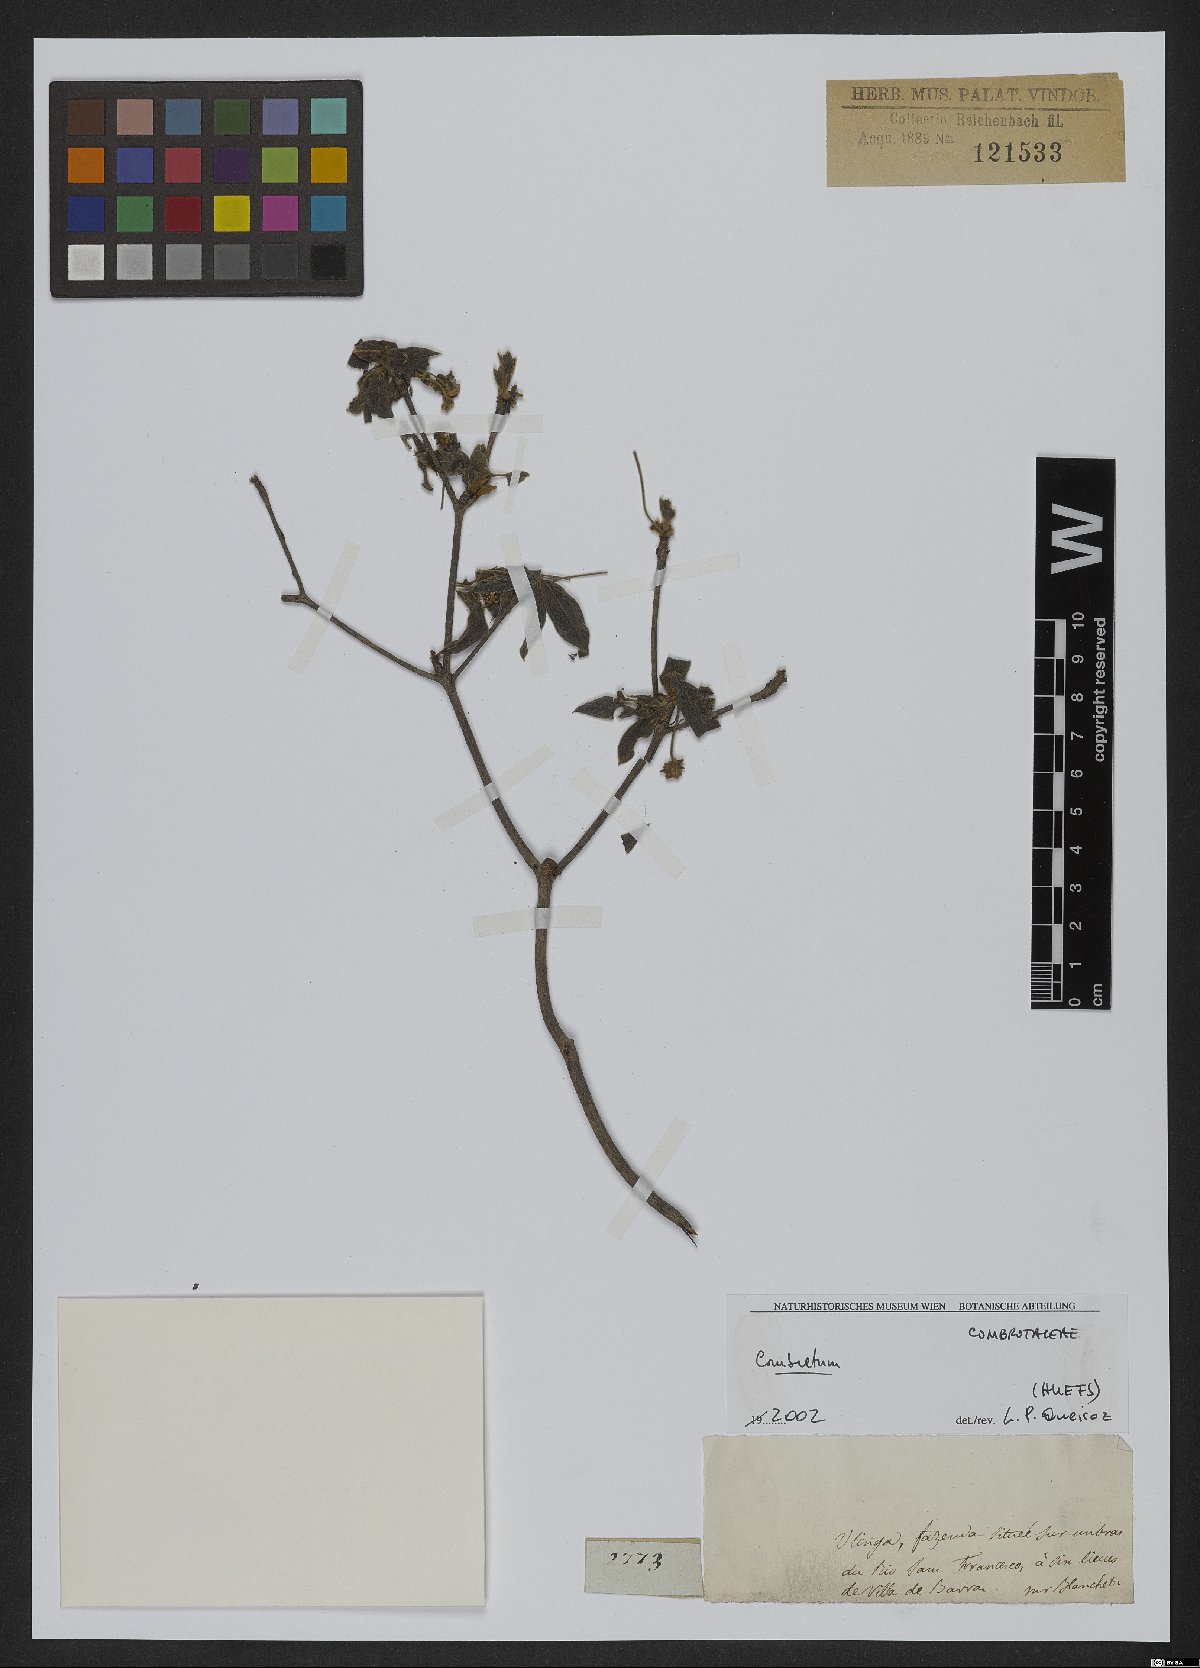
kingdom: Plantae
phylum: Tracheophyta
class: Magnoliopsida
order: Myrtales
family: Combretaceae
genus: Combretum
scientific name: Combretum vernicosum
